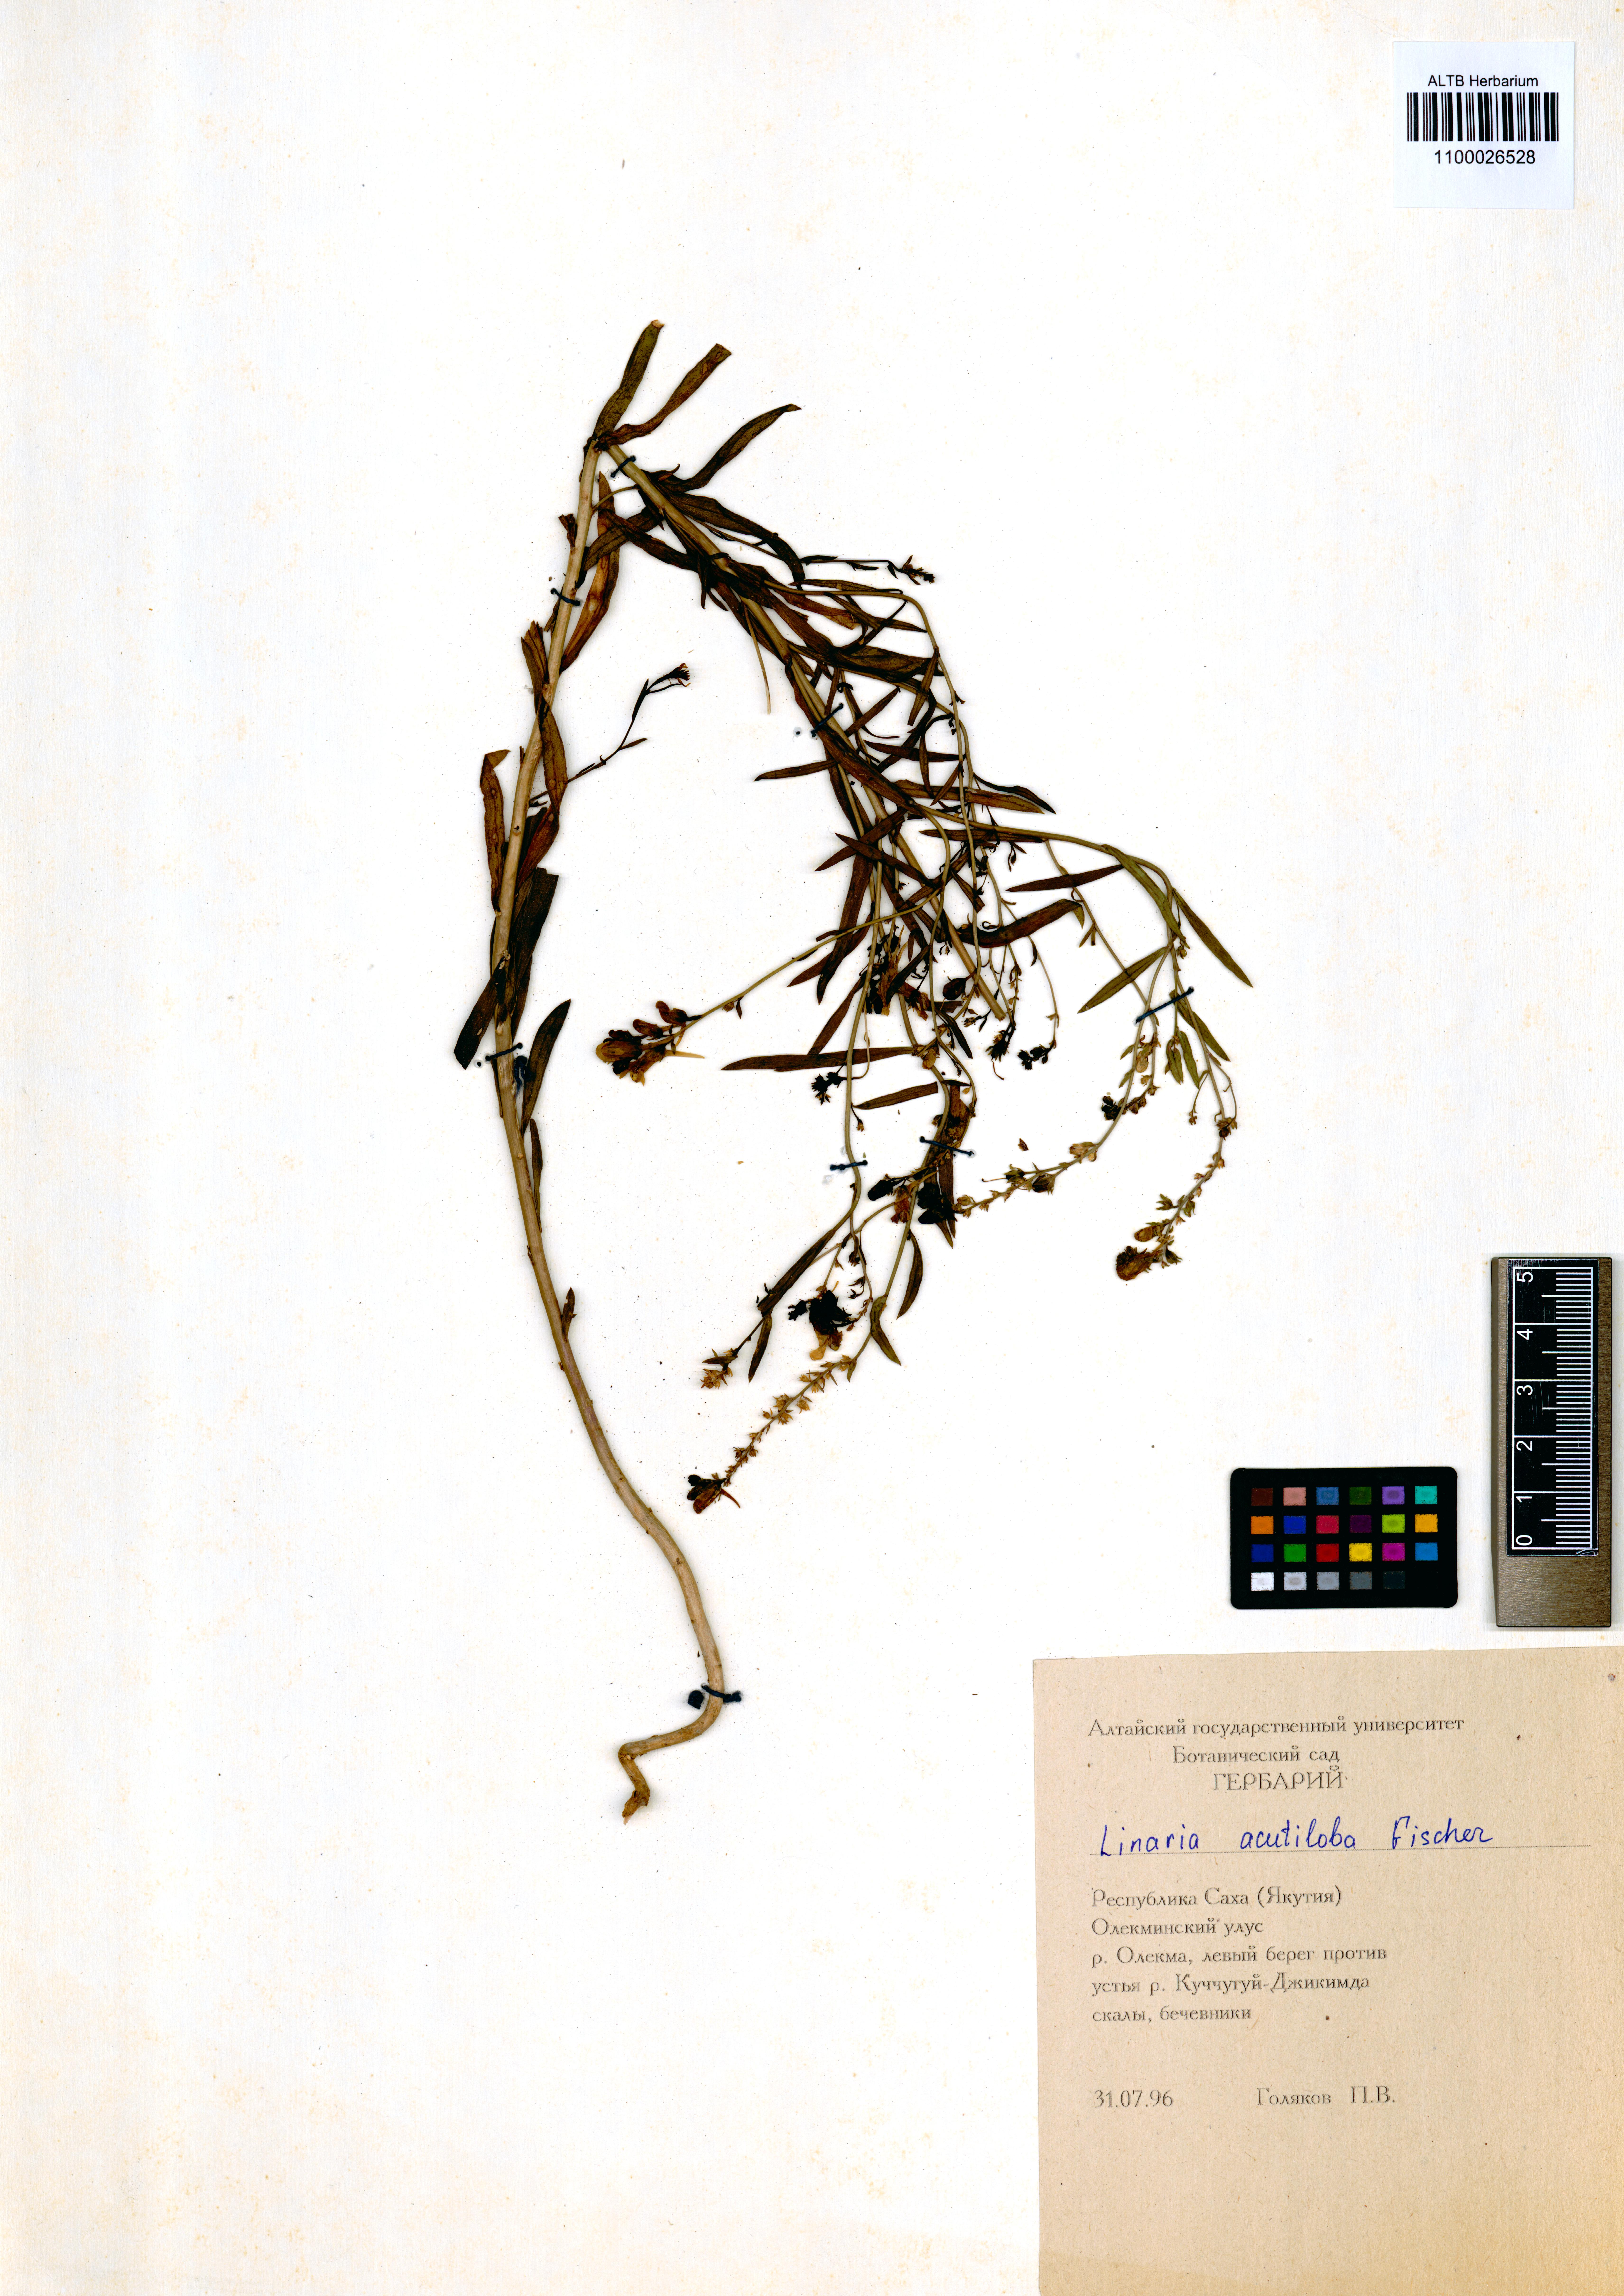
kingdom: Plantae
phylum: Tracheophyta
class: Magnoliopsida
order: Lamiales
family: Plantaginaceae
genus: Linaria
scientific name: Linaria acutiloba
